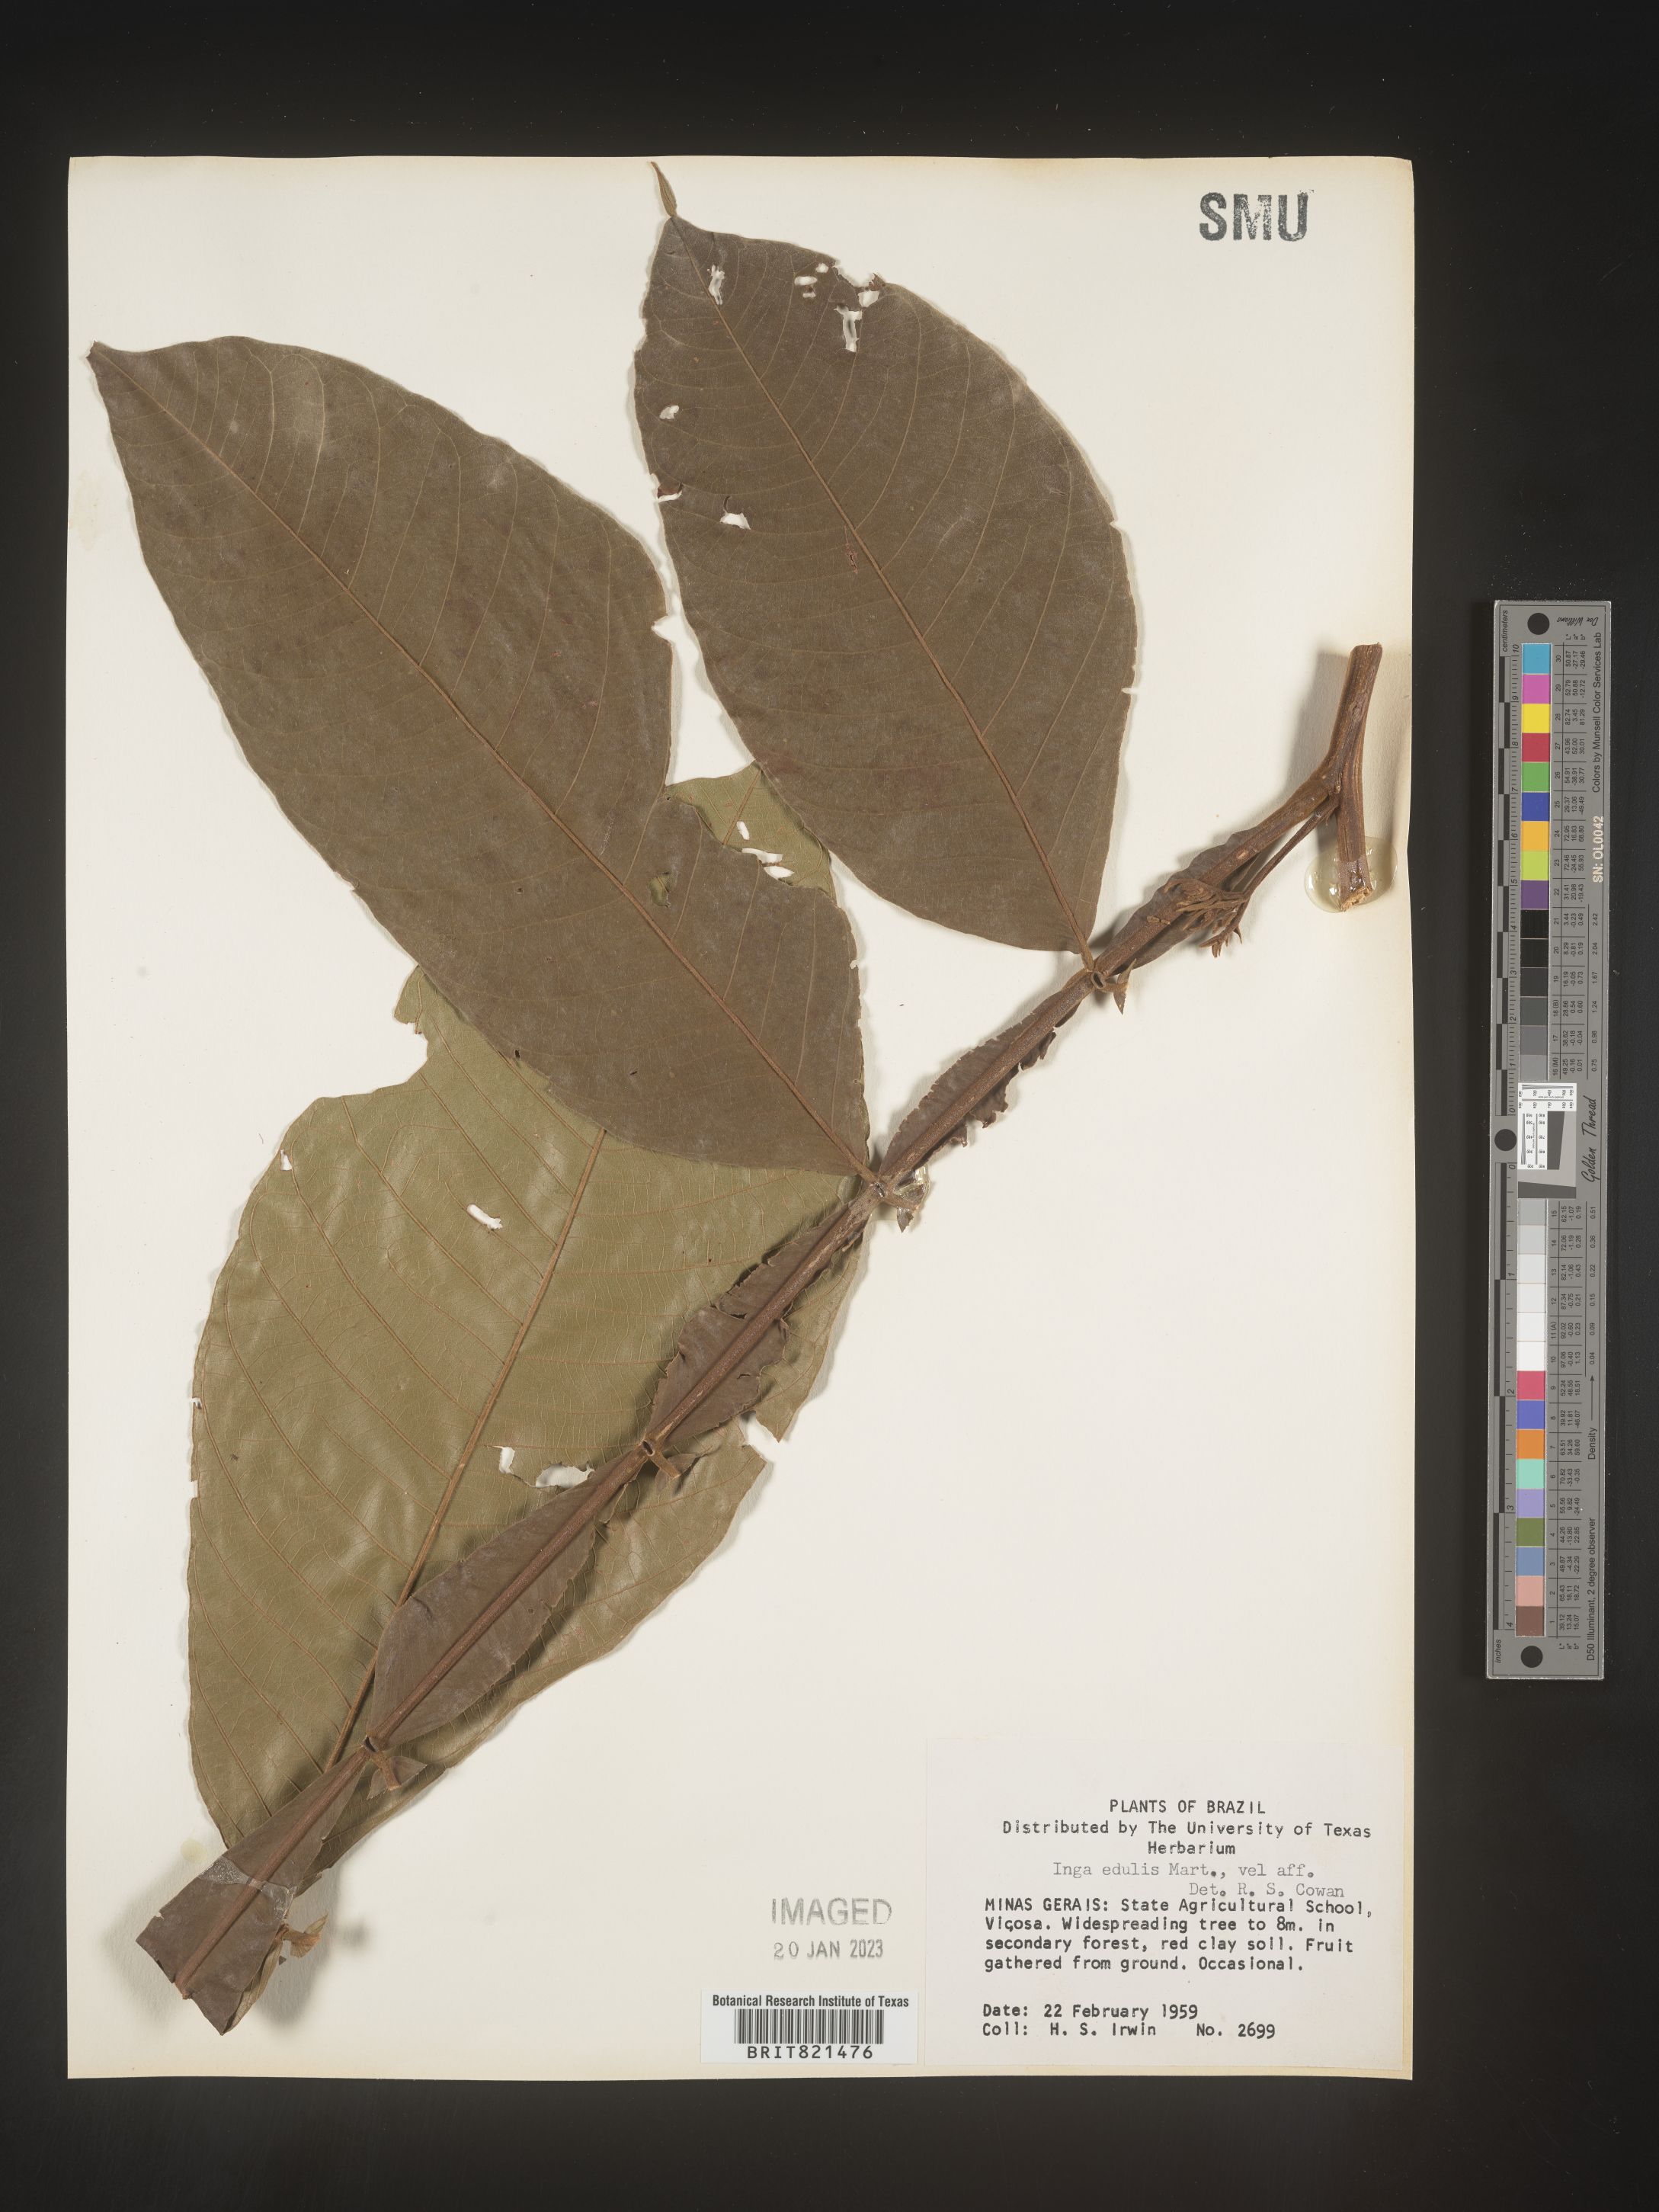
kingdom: Plantae
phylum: Tracheophyta
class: Magnoliopsida
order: Fabales
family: Fabaceae
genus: Inga
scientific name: Inga
